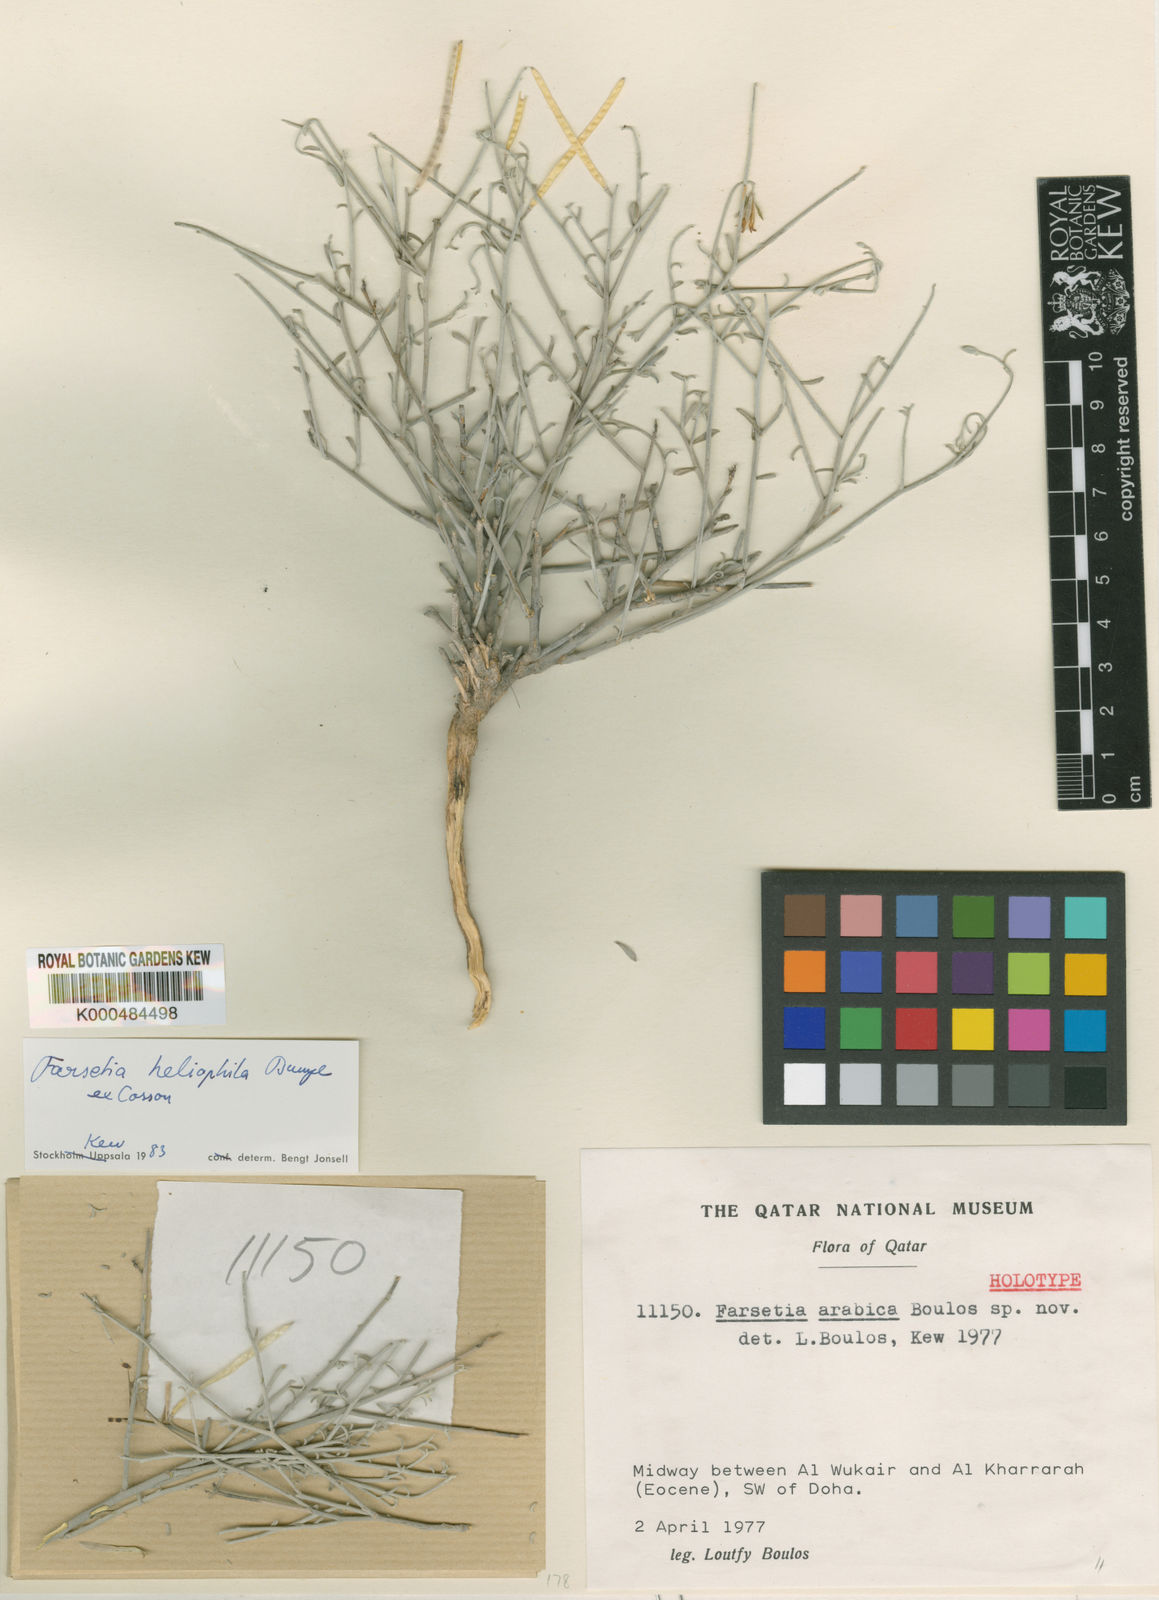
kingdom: Plantae
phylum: Tracheophyta
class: Magnoliopsida
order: Brassicales
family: Brassicaceae
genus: Farsetia
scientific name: Farsetia heliophila
